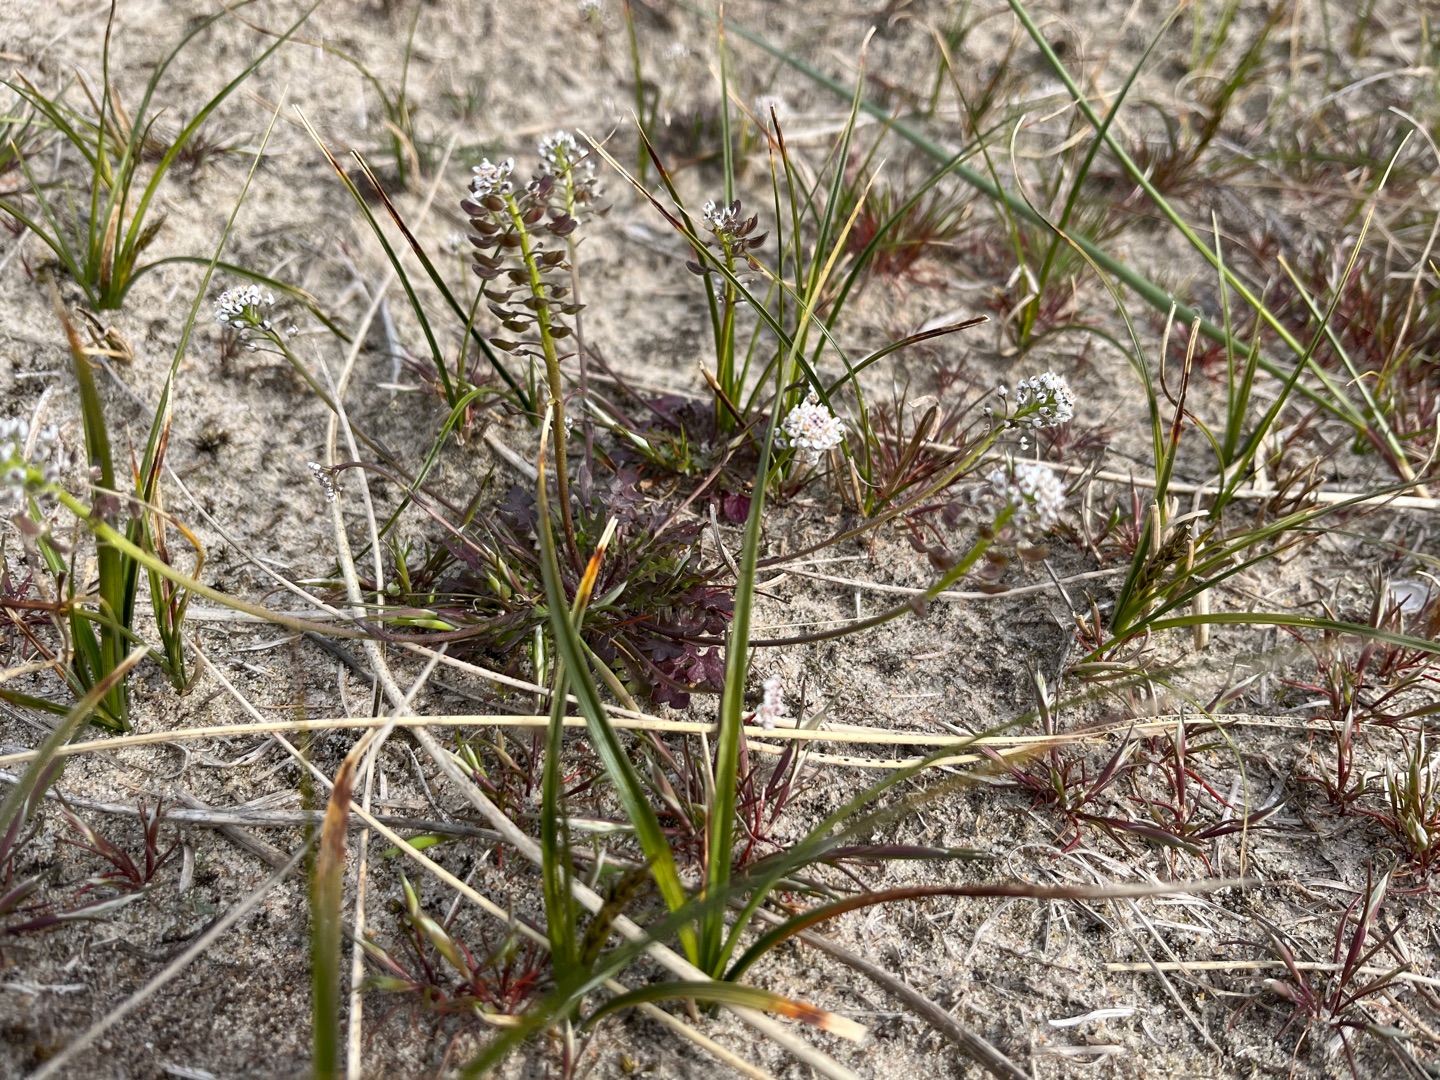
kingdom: Plantae
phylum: Tracheophyta
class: Magnoliopsida
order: Brassicales
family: Brassicaceae
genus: Teesdalia
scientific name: Teesdalia nudicaulis
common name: Flipkrave
